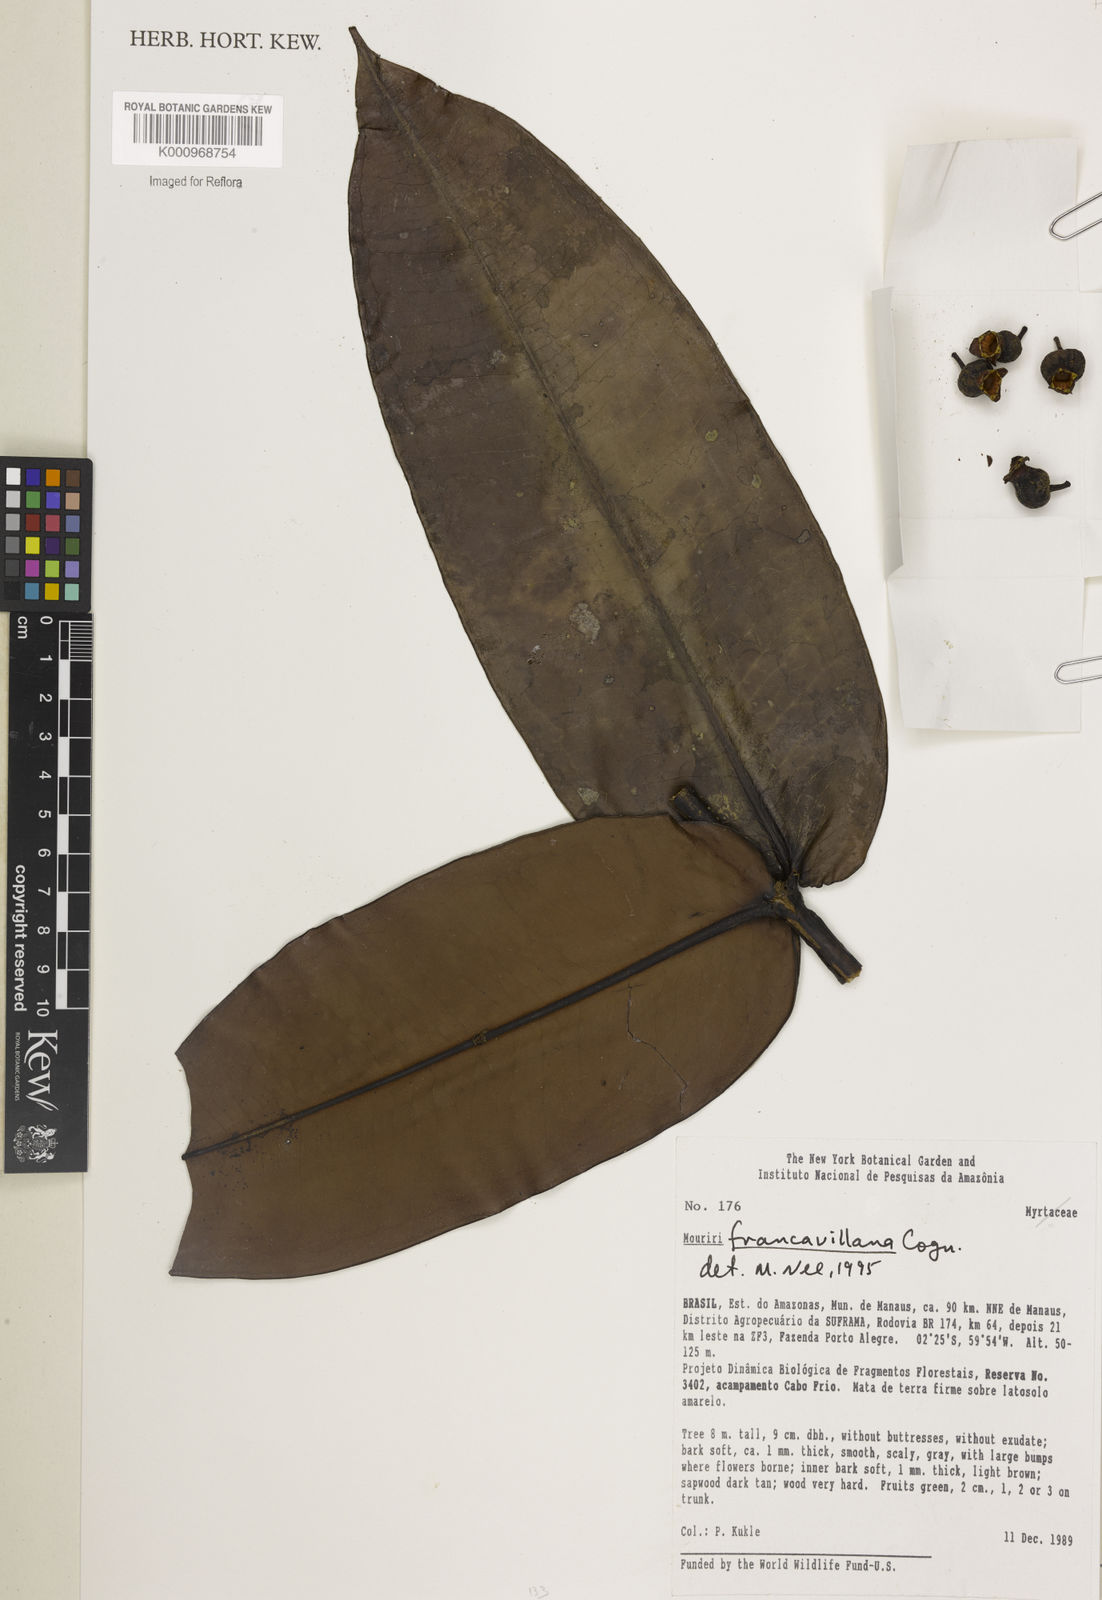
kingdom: Plantae
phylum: Tracheophyta
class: Magnoliopsida
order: Myrtales
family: Melastomataceae
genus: Mouriri
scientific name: Mouriri francavillana
